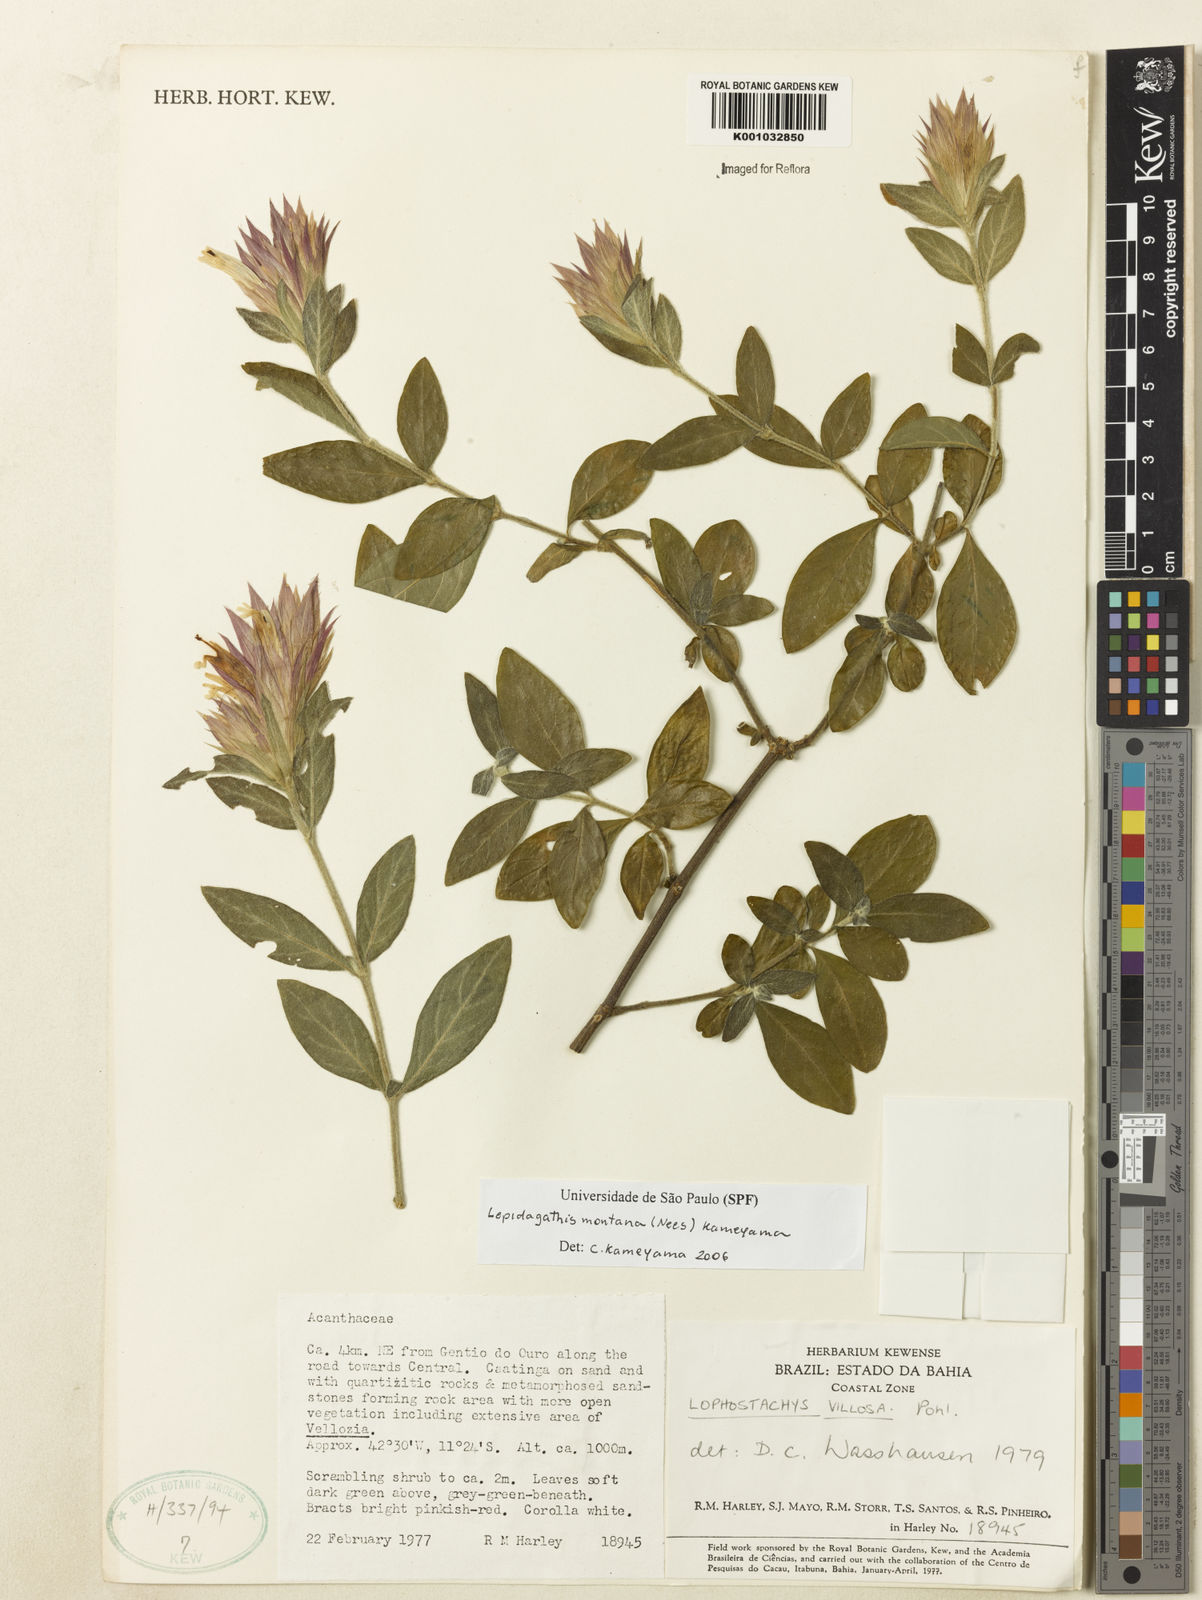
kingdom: Plantae
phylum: Tracheophyta
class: Magnoliopsida
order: Lamiales
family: Acanthaceae
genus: Lepidagathis
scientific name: Lepidagathis montana
